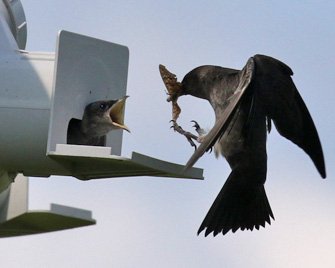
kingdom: Animalia
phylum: Arthropoda
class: Insecta
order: Lepidoptera
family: Nymphalidae
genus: Asterocampa
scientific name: Asterocampa celtis
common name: Hackberry Emperor
